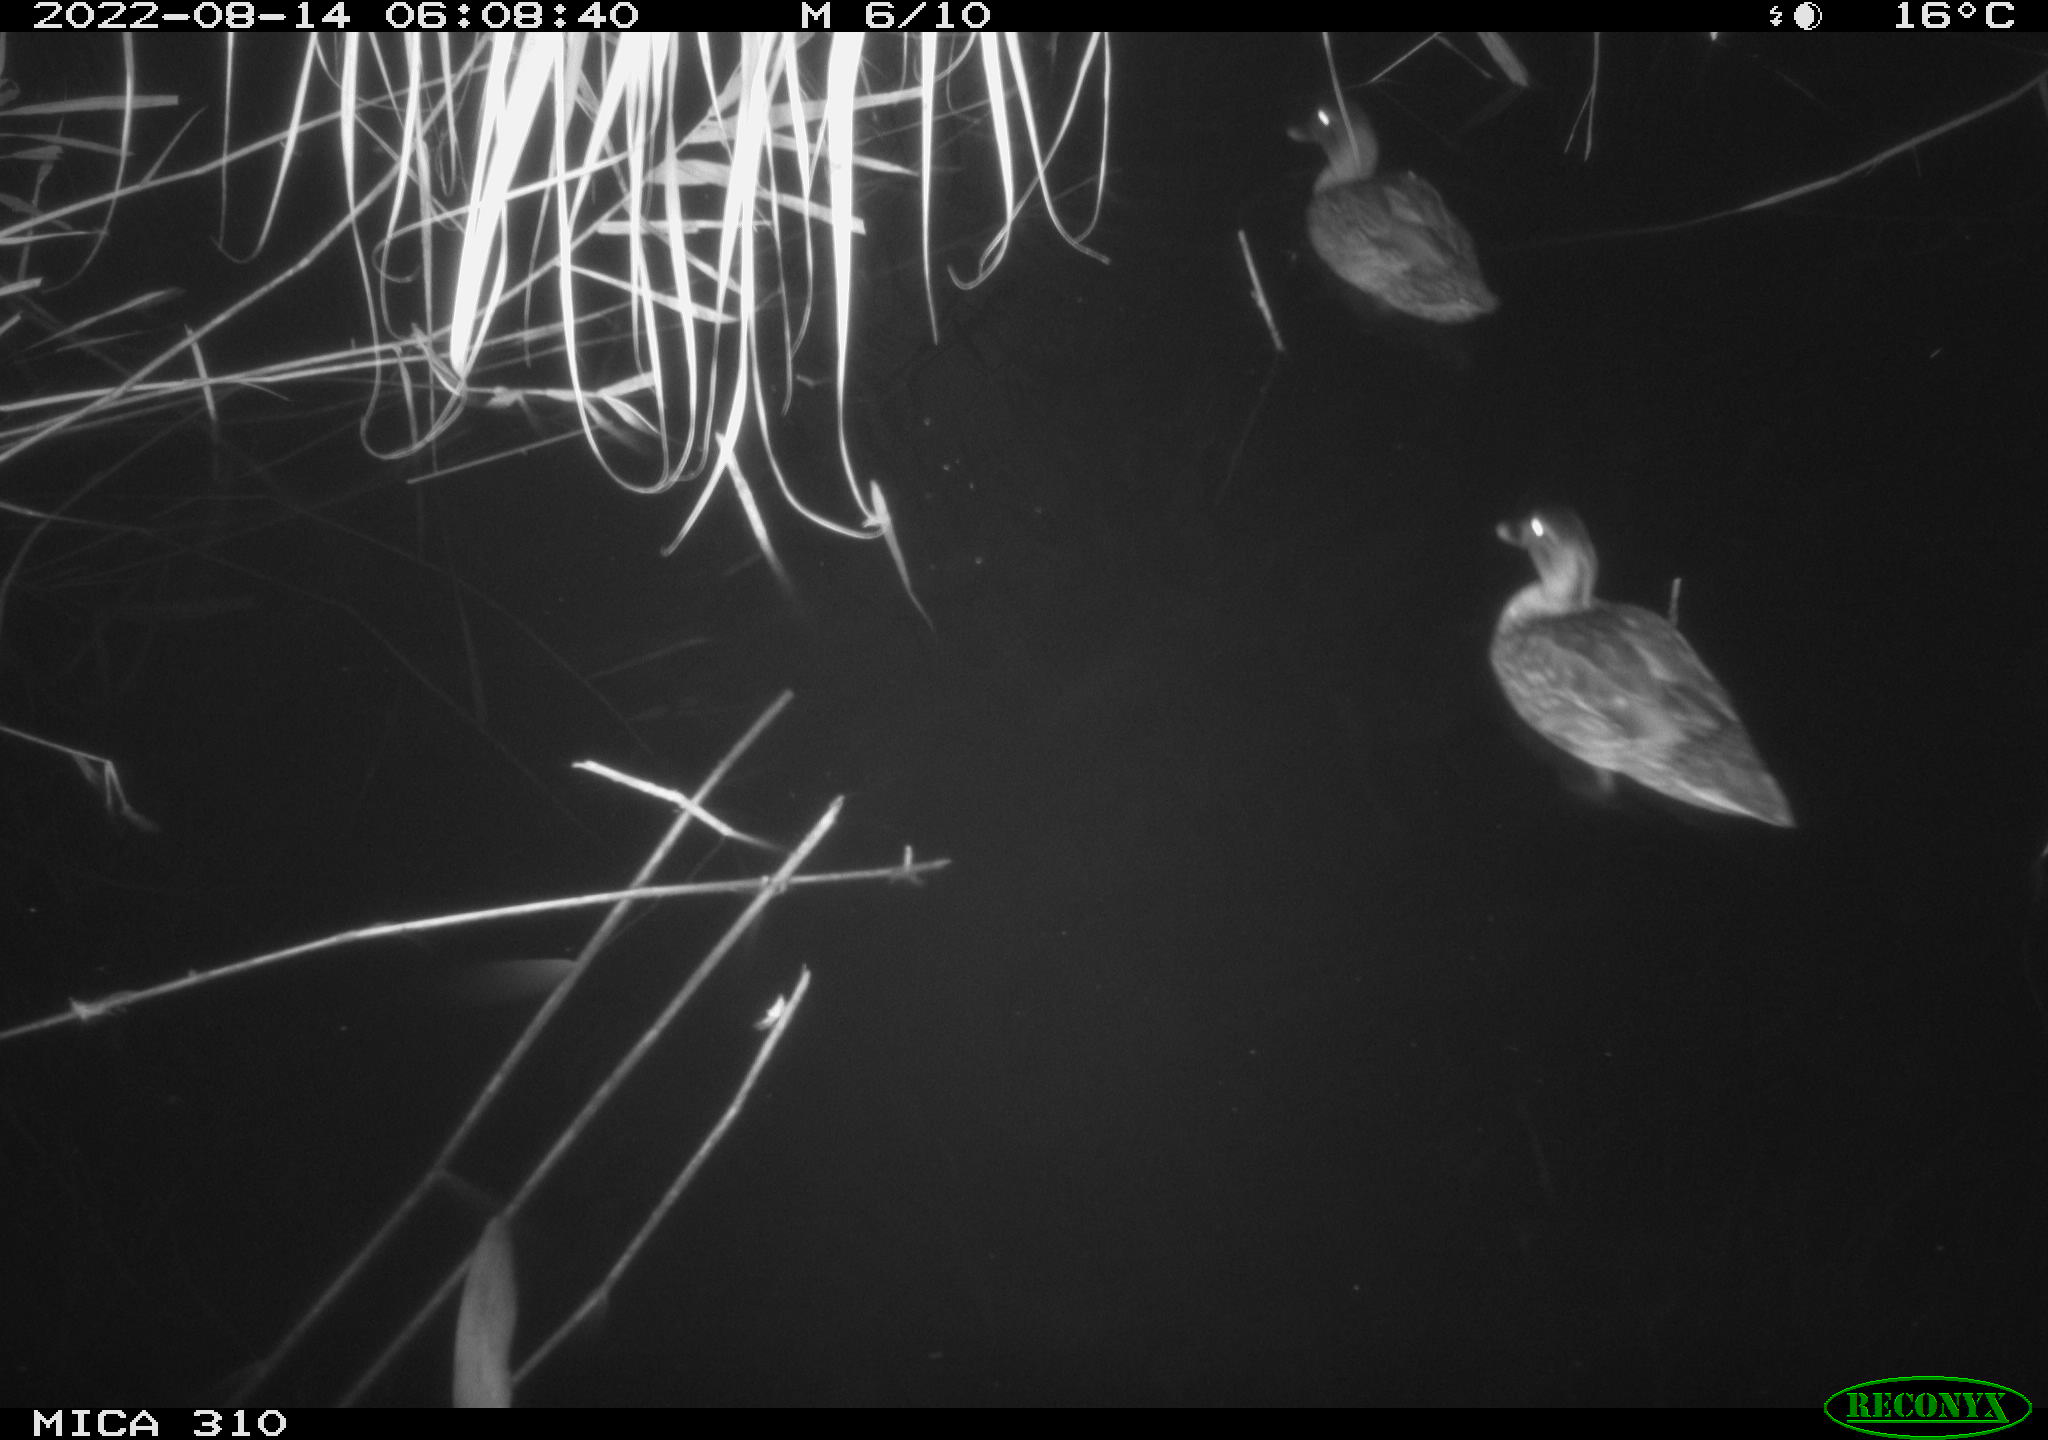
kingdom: Animalia
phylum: Chordata
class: Aves
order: Anseriformes
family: Anatidae
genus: Anas
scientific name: Anas platyrhynchos
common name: Mallard
